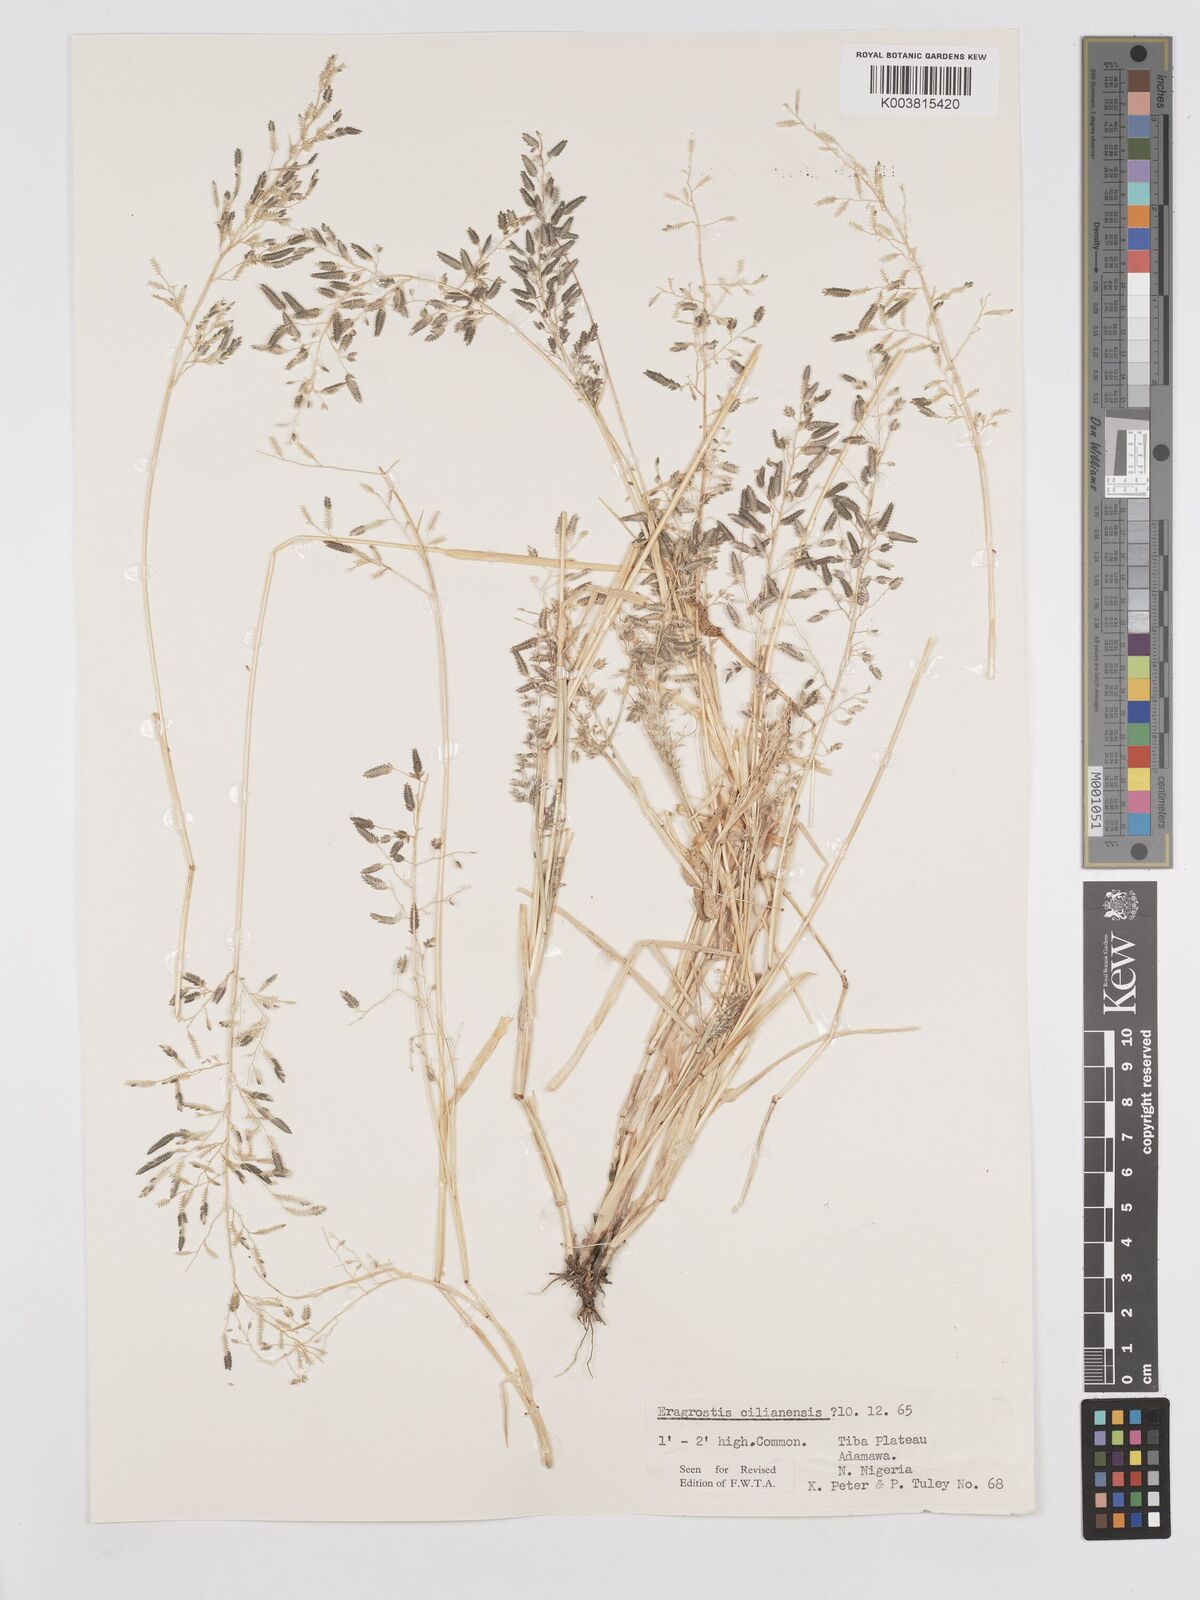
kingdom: Plantae
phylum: Tracheophyta
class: Liliopsida
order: Poales
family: Poaceae
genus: Eragrostis
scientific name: Eragrostis cilianensis
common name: Stinkgrass
